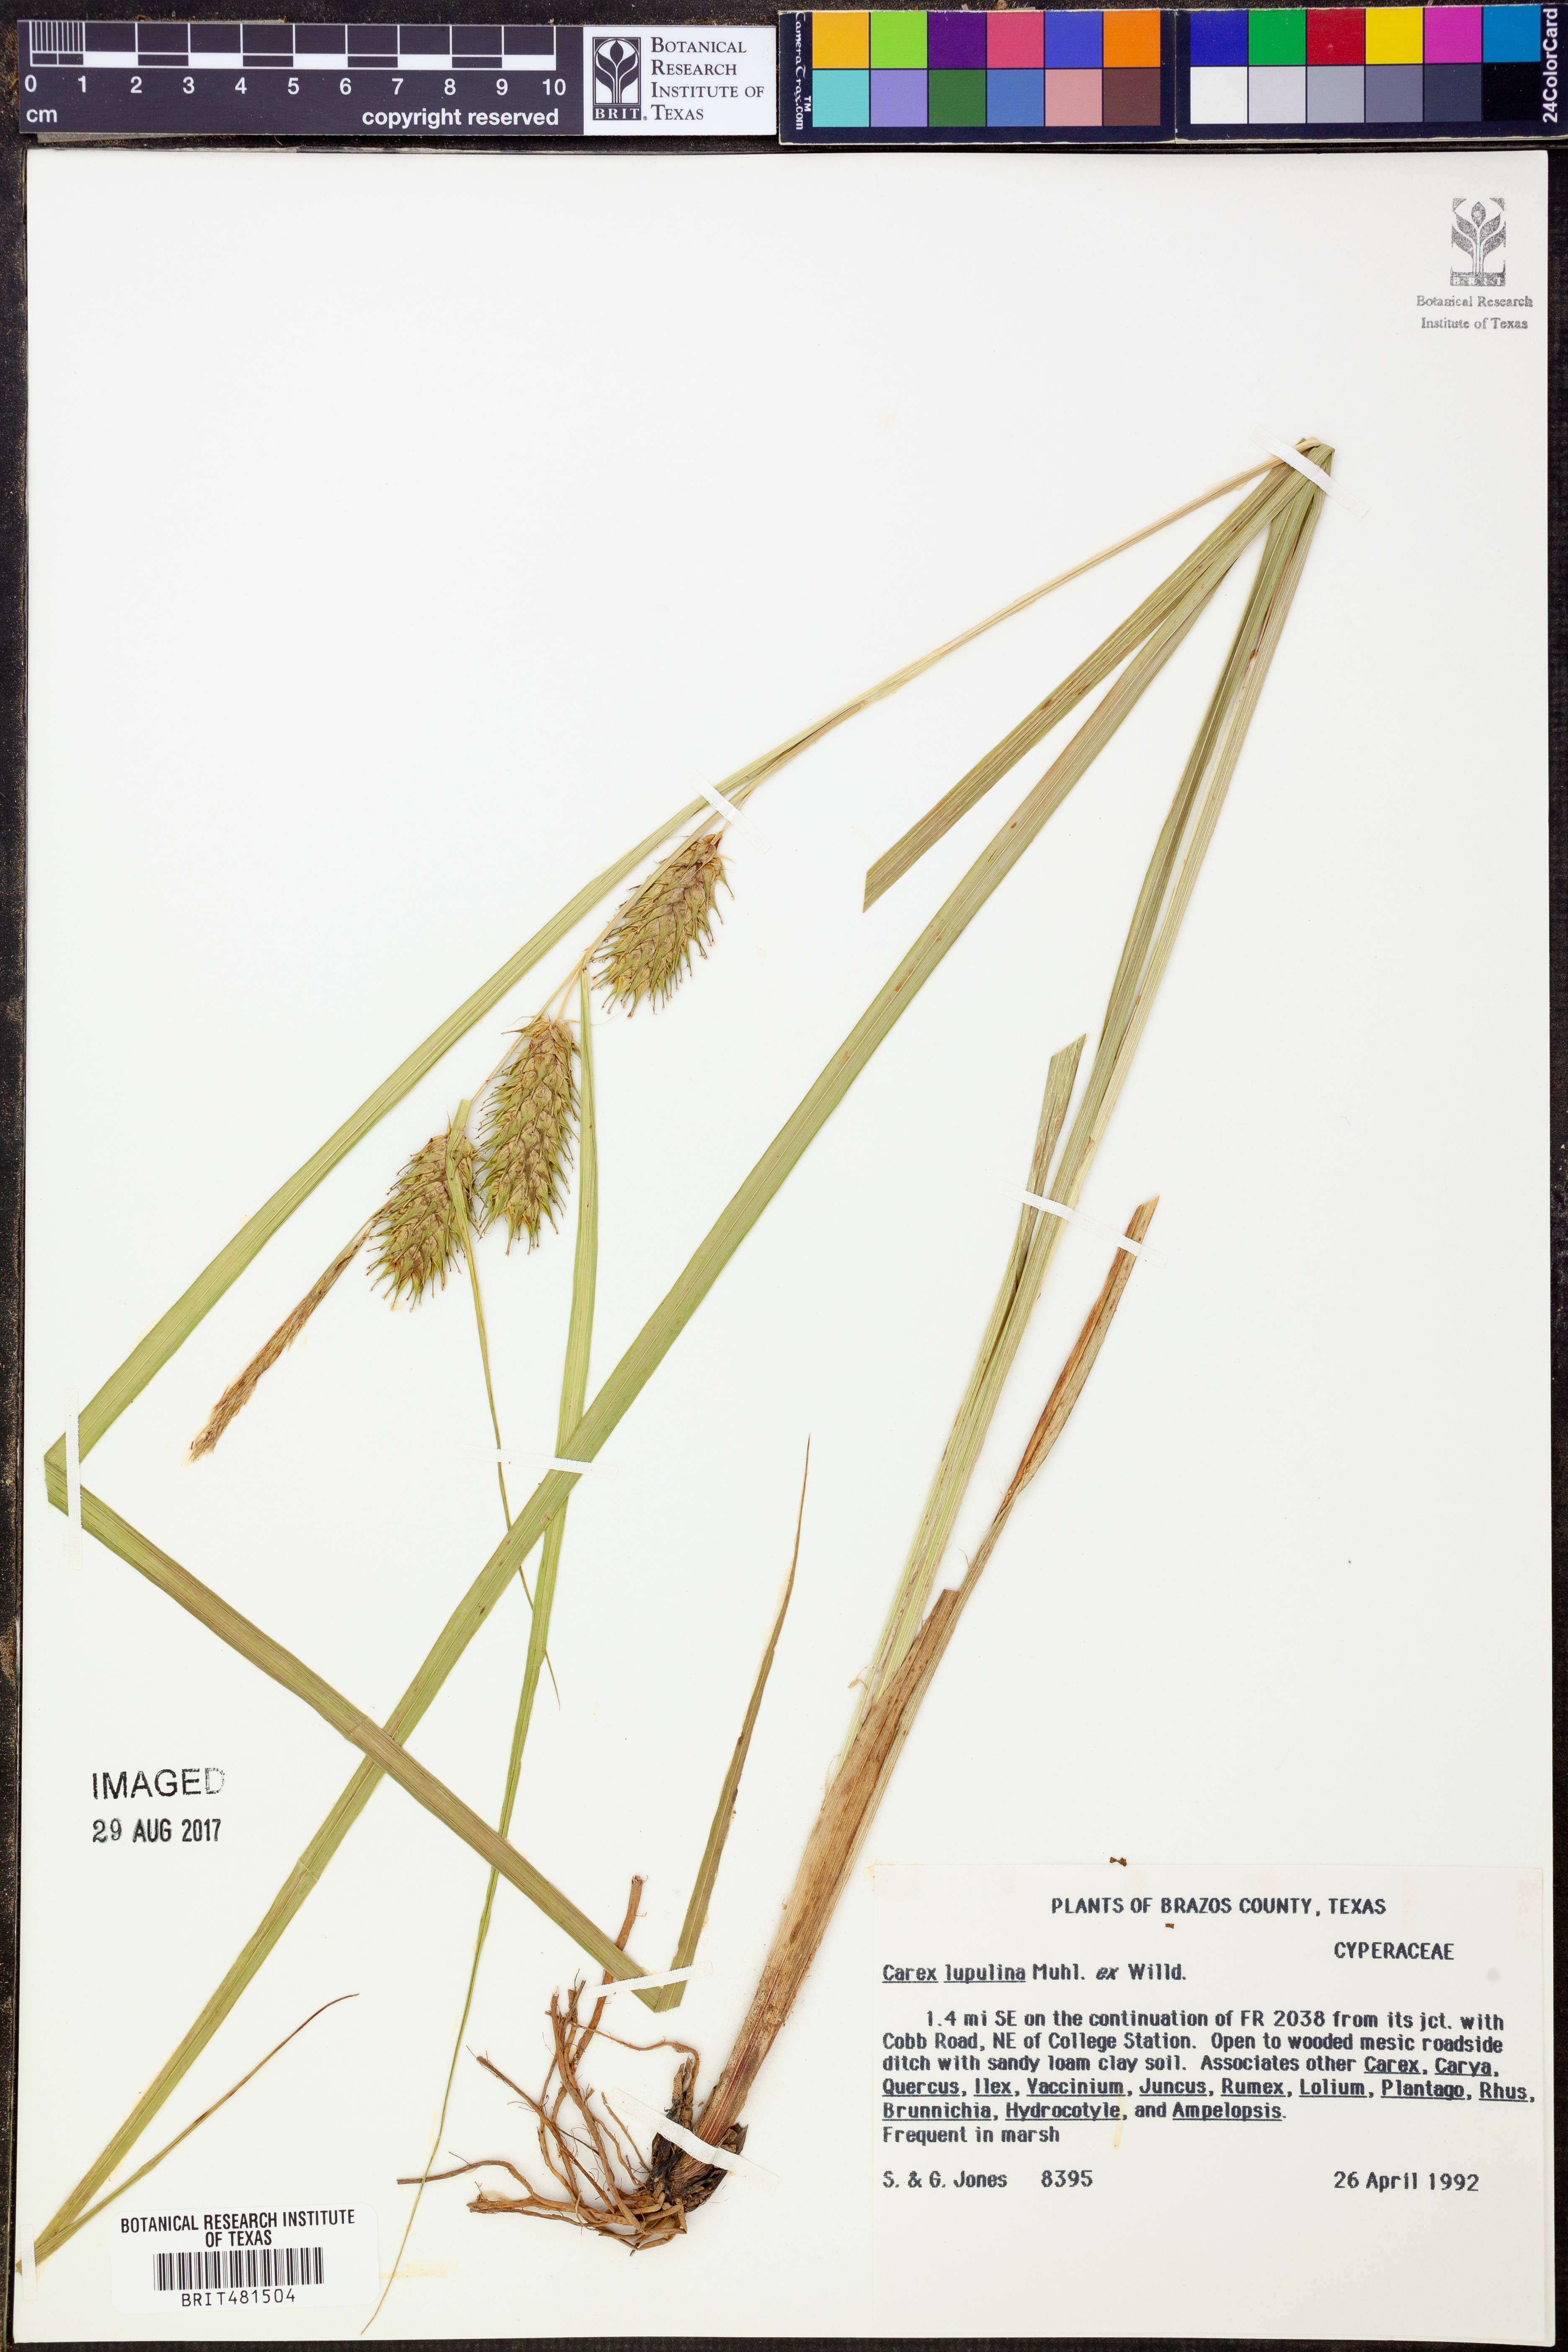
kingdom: Plantae
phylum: Tracheophyta
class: Liliopsida
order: Poales
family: Cyperaceae
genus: Carex
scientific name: Carex lupulina
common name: Hop sedge
